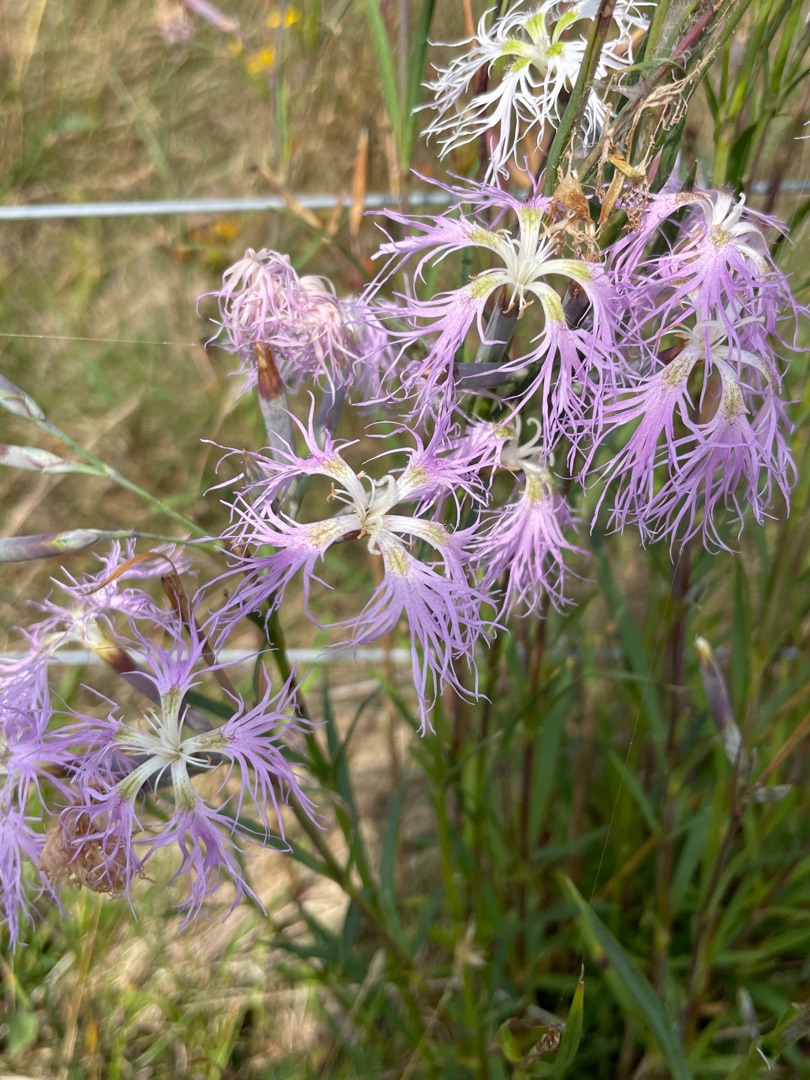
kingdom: Plantae
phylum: Tracheophyta
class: Magnoliopsida
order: Caryophyllales
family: Caryophyllaceae
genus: Dianthus
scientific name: Dianthus superbus
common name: Strand-nellike
